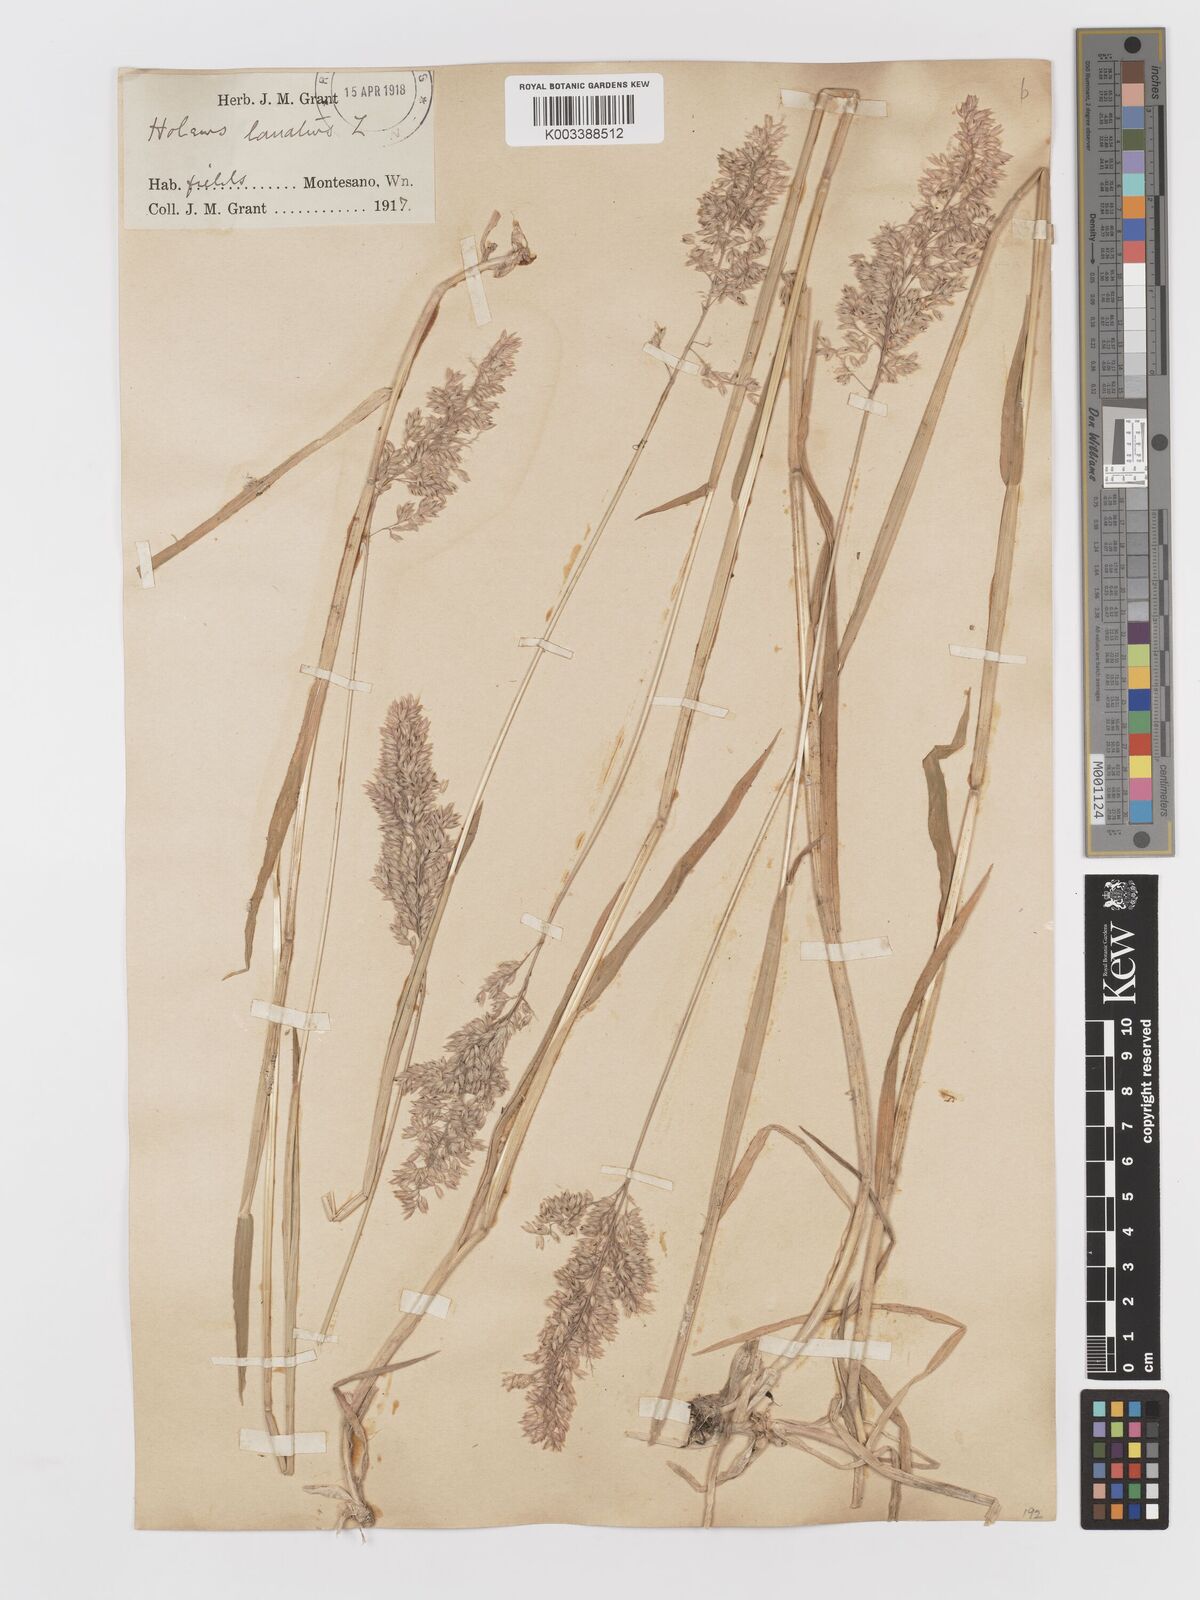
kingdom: Plantae
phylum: Tracheophyta
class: Liliopsida
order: Poales
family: Poaceae
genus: Holcus
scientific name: Holcus lanatus
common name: Yorkshire-fog
